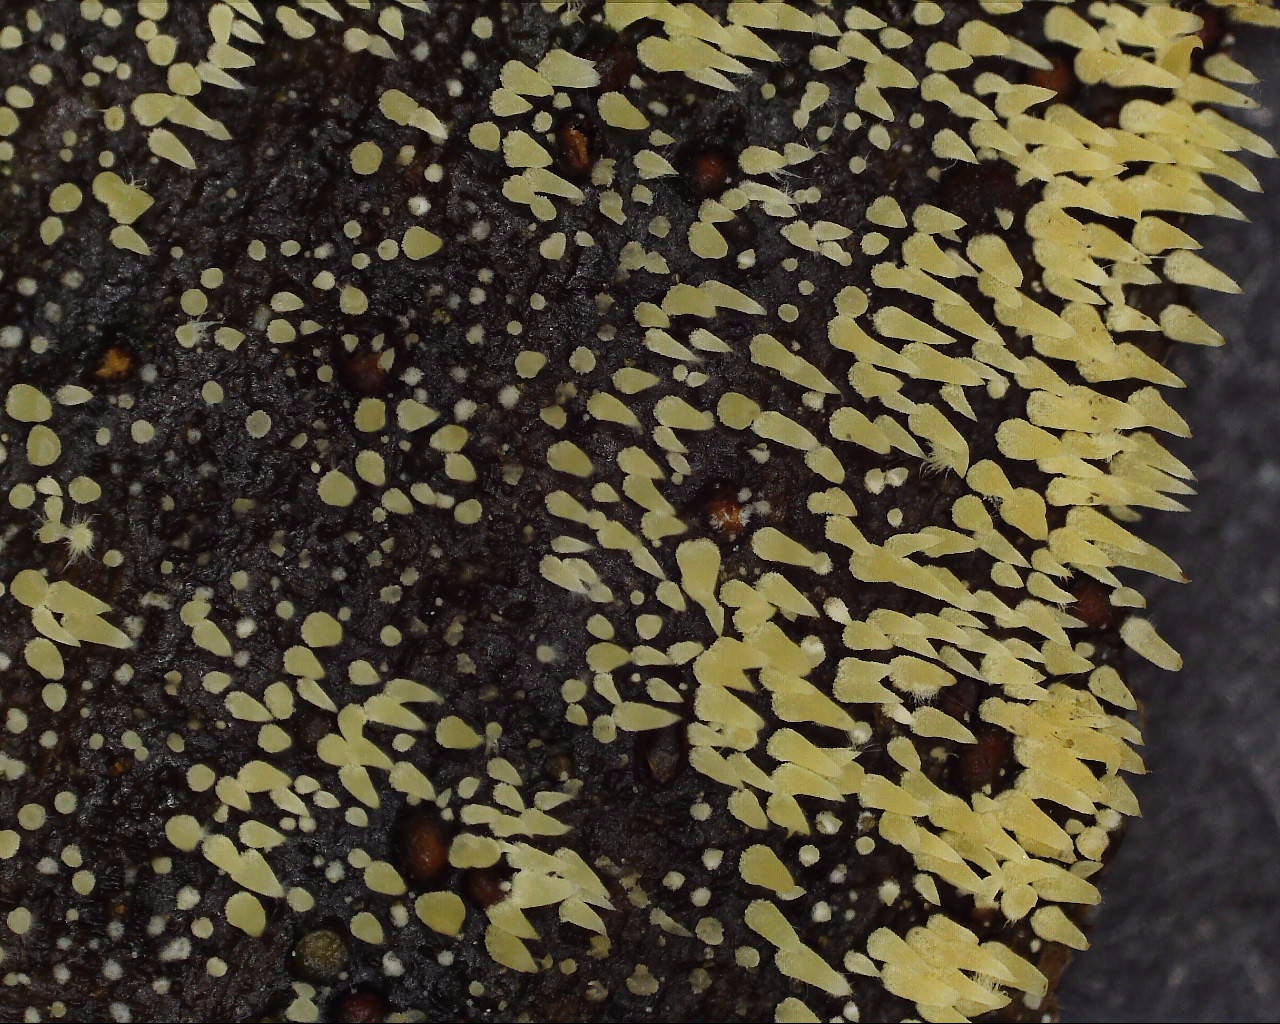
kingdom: Fungi
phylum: Basidiomycota
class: Agaricomycetes
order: Agaricales
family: Clavariaceae
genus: Mucronella
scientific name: Mucronella flava
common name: gul hængepig
